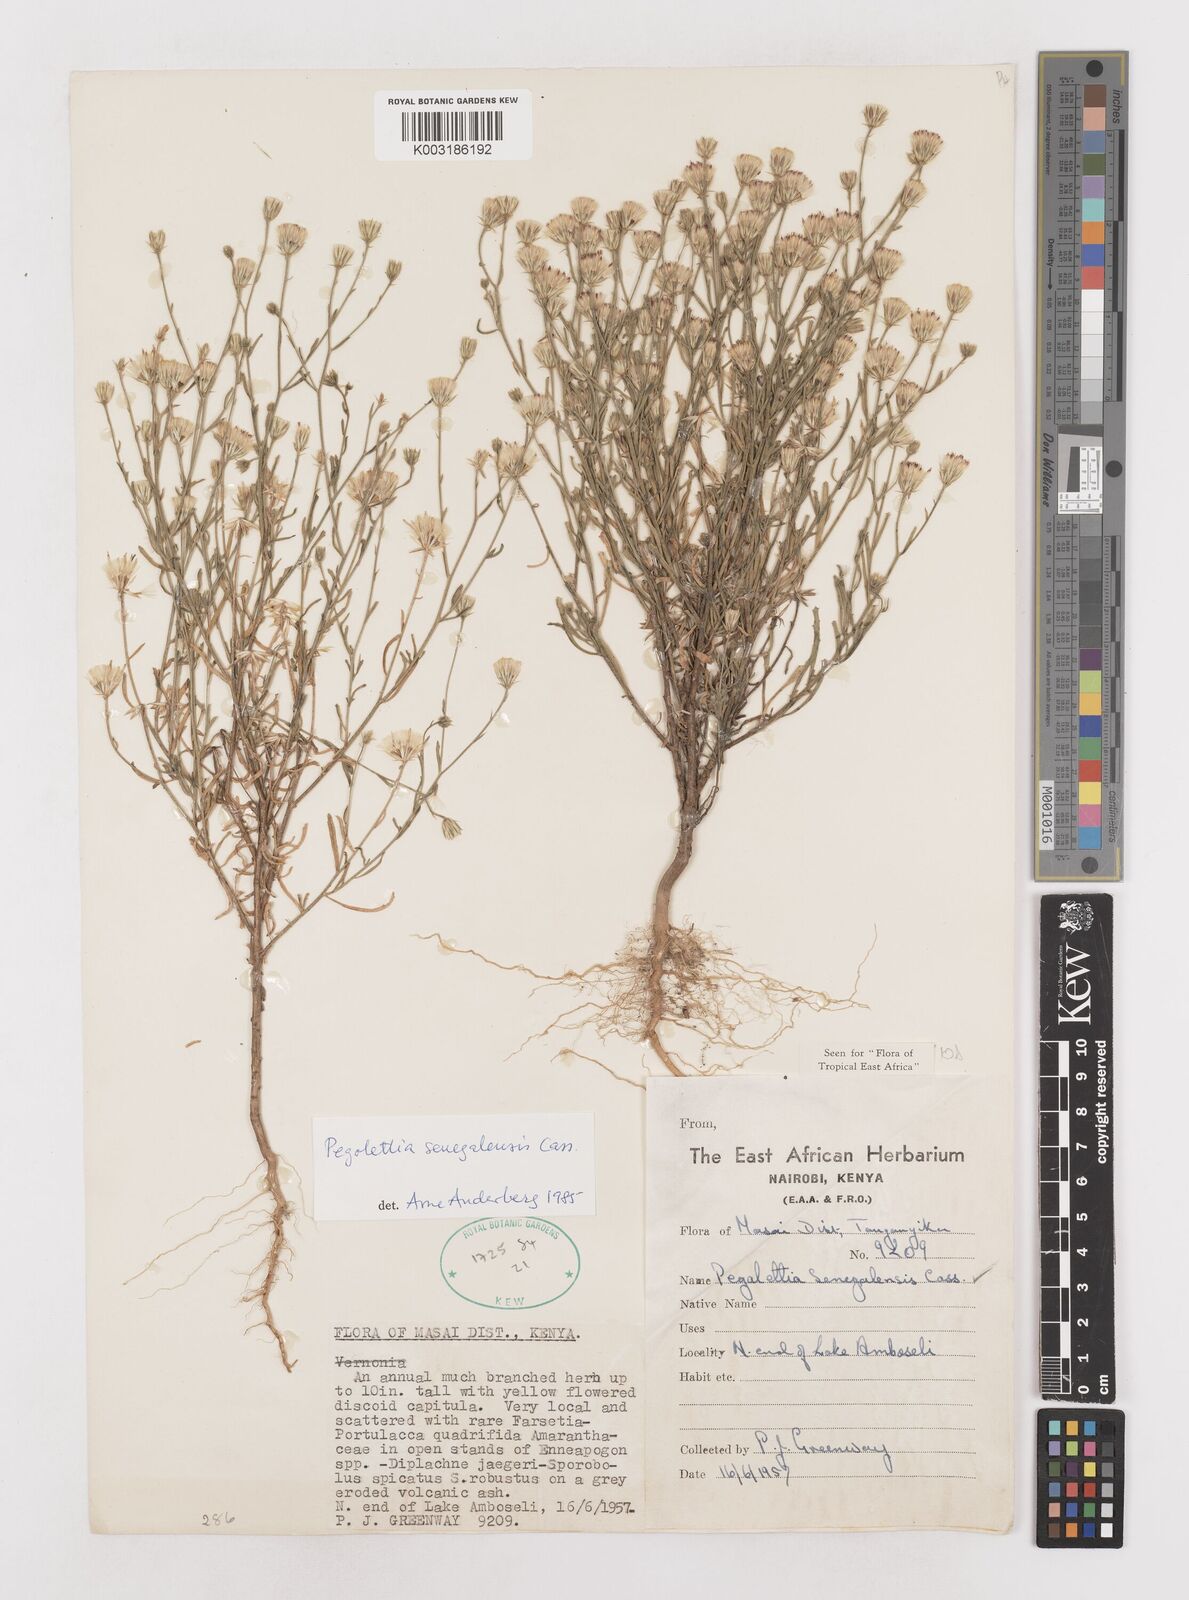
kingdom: Plantae
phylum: Tracheophyta
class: Magnoliopsida
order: Asterales
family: Asteraceae
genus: Pegolettia
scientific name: Pegolettia senegalensis
